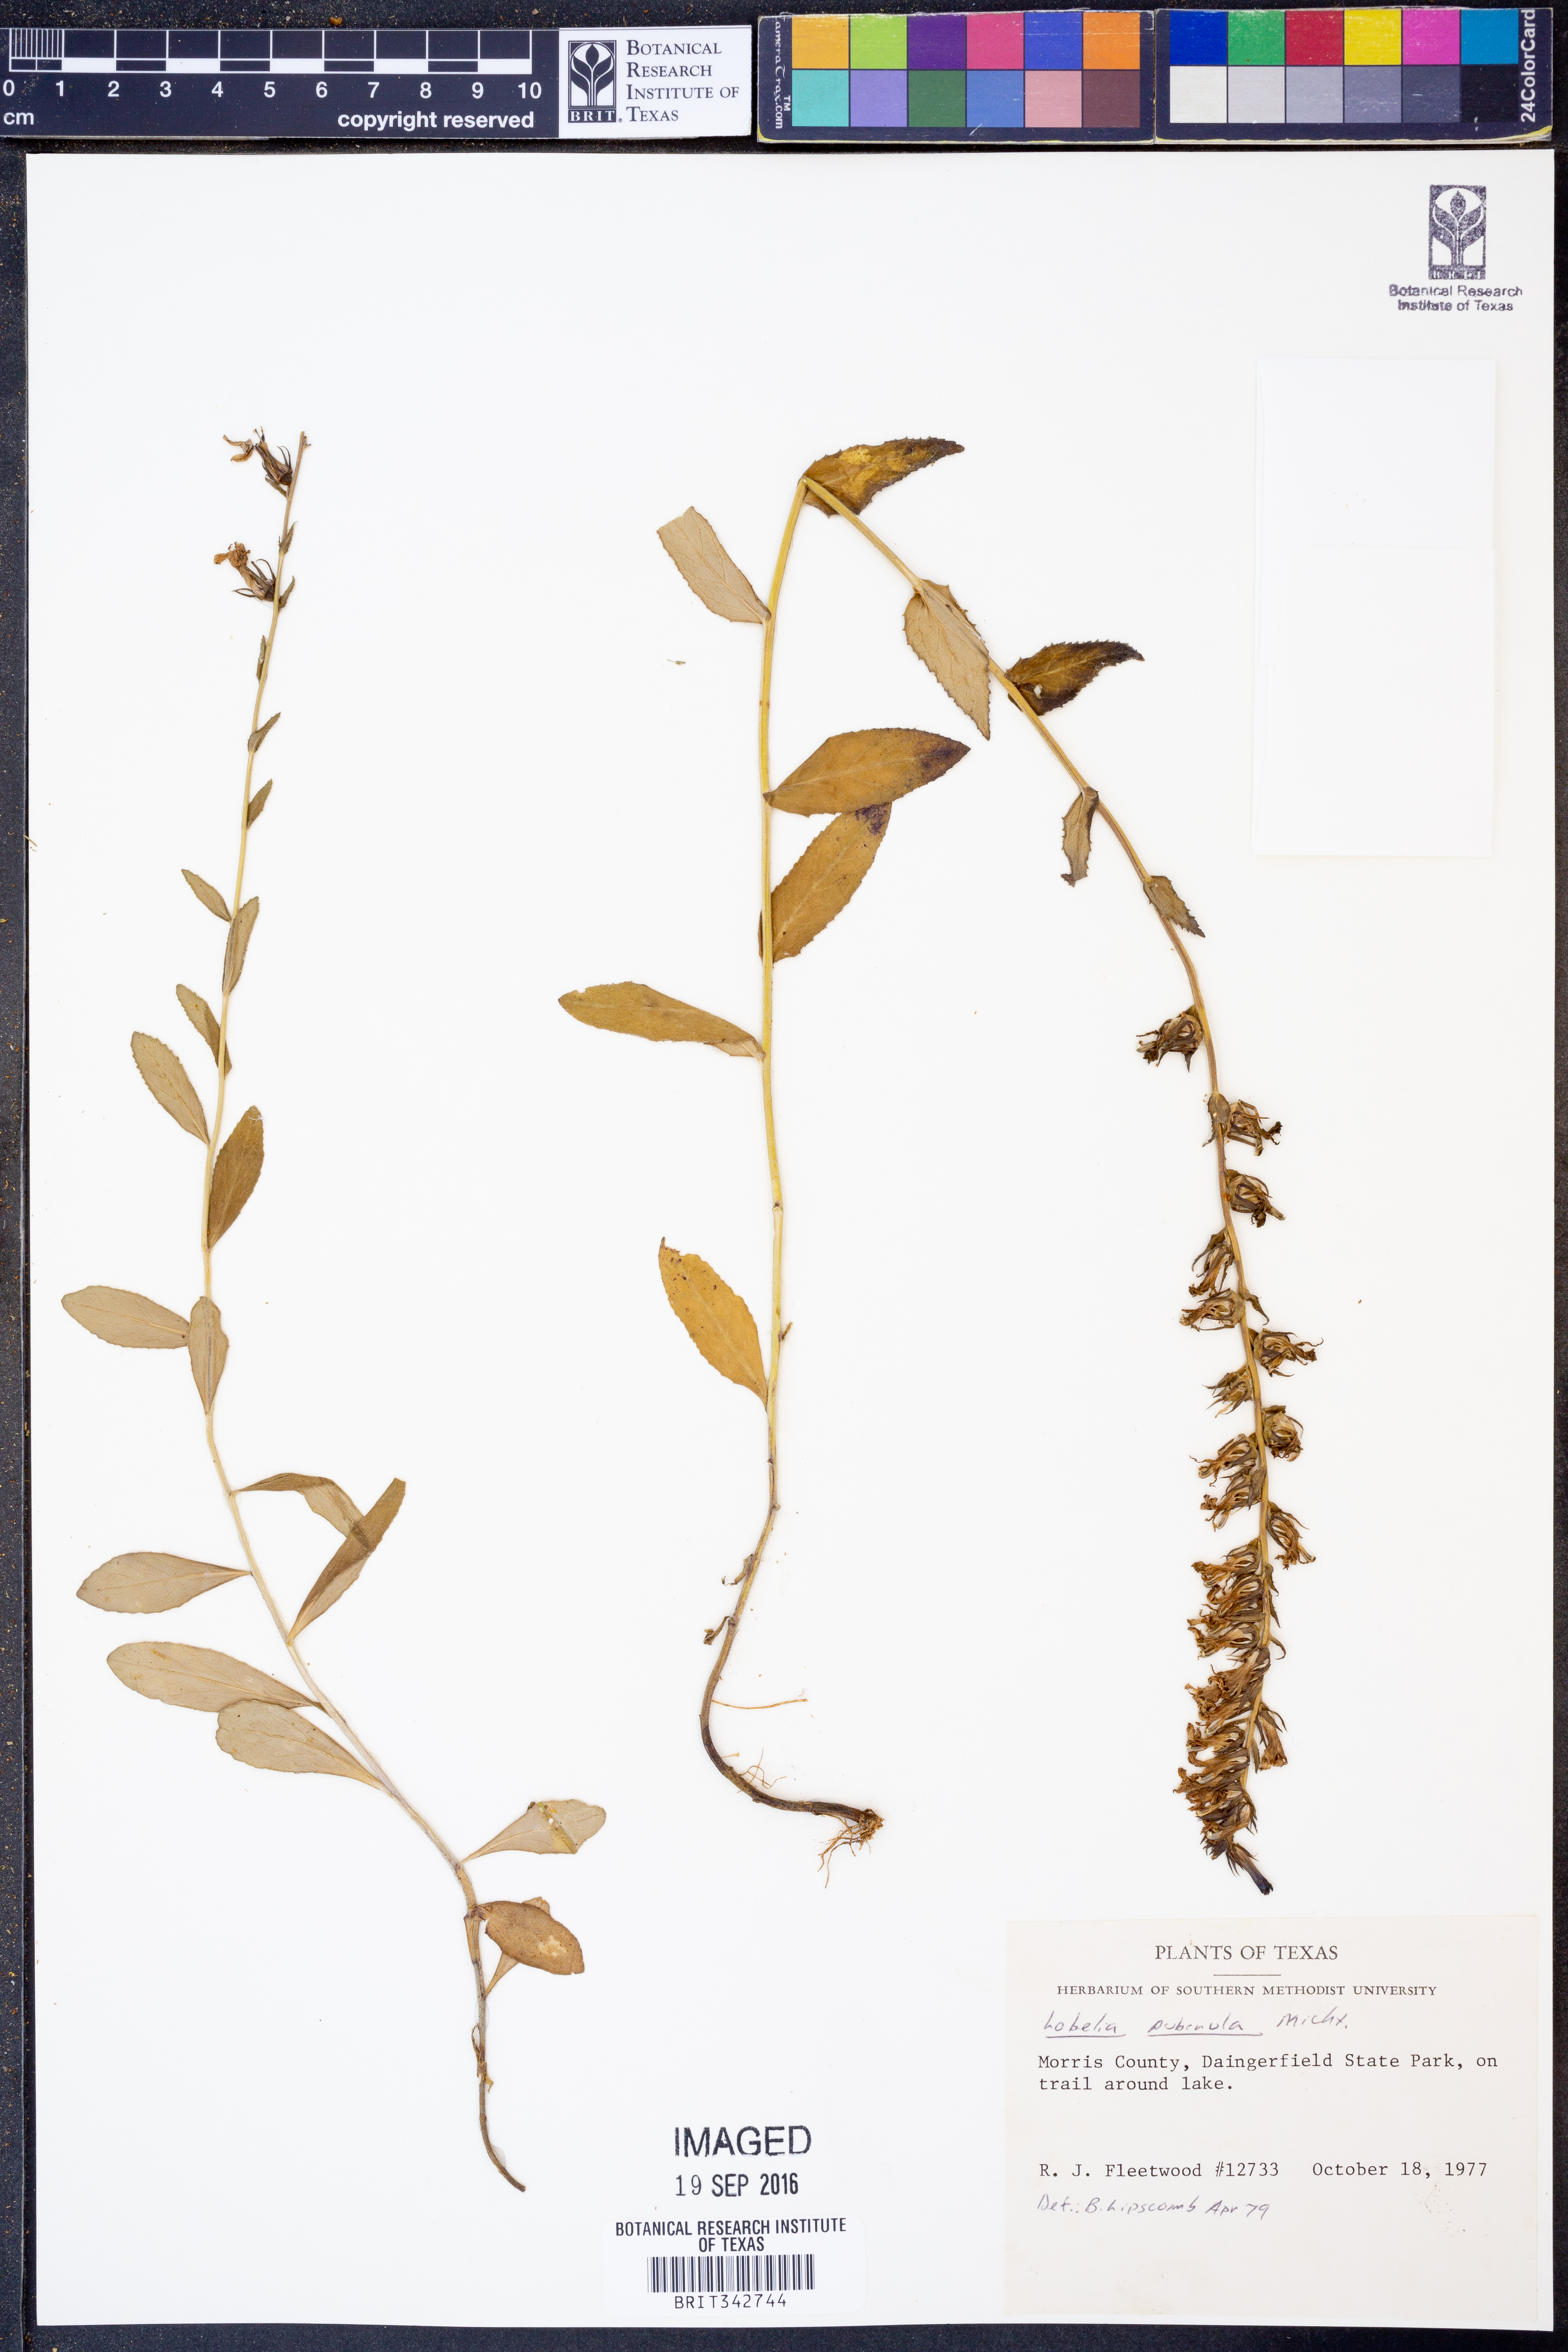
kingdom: Plantae
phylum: Tracheophyta
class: Magnoliopsida
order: Asterales
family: Campanulaceae
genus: Lobelia
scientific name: Lobelia puberula
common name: Purple dewdrop
